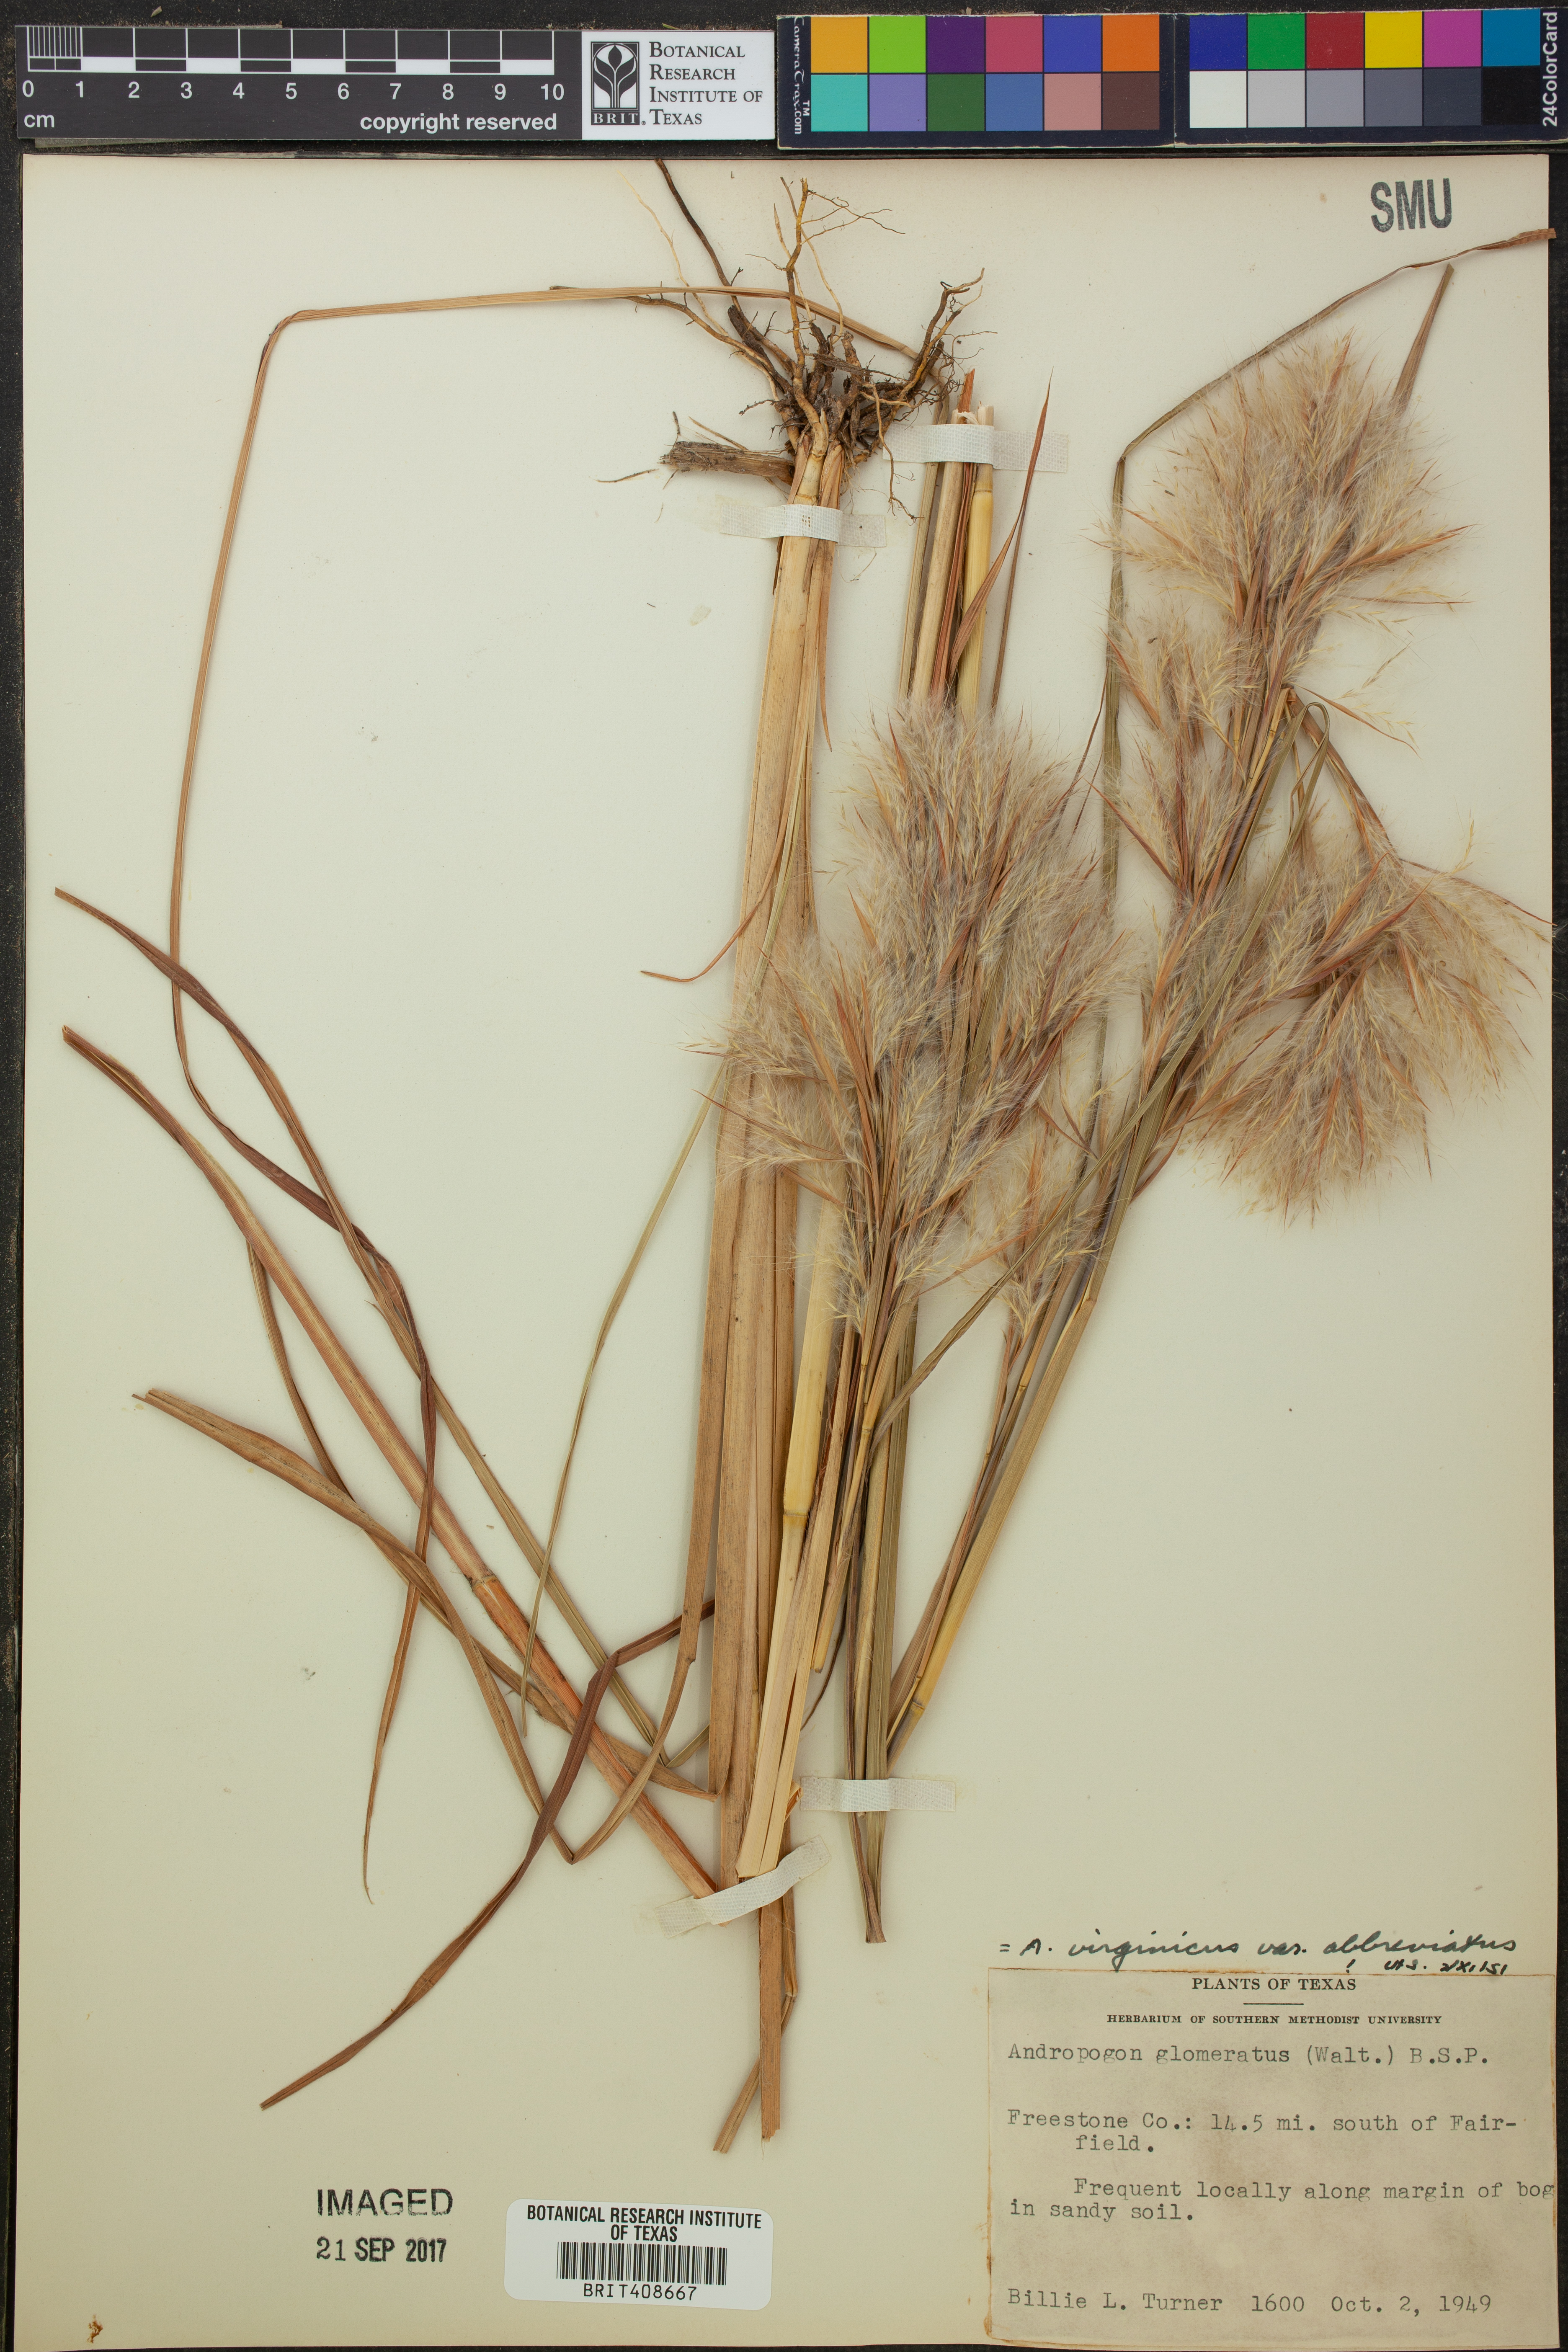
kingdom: Plantae
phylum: Tracheophyta
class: Liliopsida
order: Poales
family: Poaceae
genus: Andropogon
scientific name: Andropogon glomeratus
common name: Bushy beard grass
